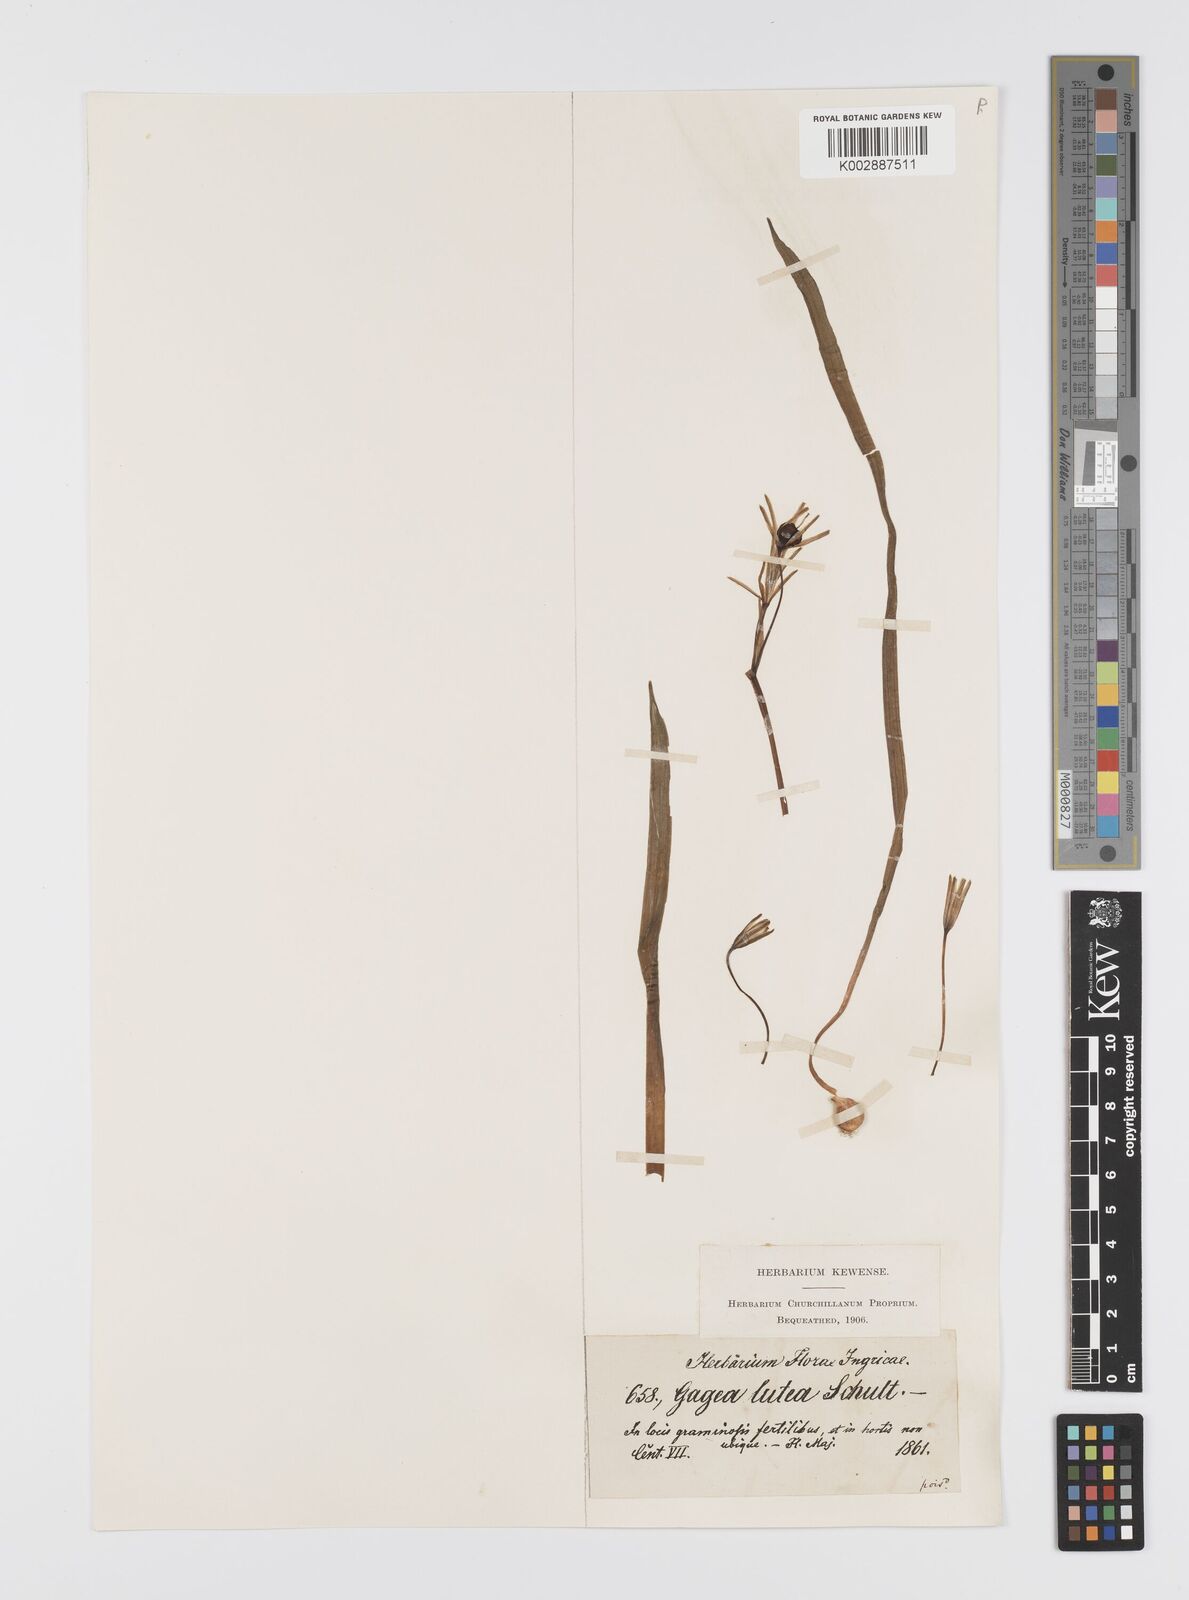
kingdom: Plantae
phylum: Tracheophyta
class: Liliopsida
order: Liliales
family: Liliaceae
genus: Gagea
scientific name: Gagea lutea
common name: Yellow star-of-bethlehem
